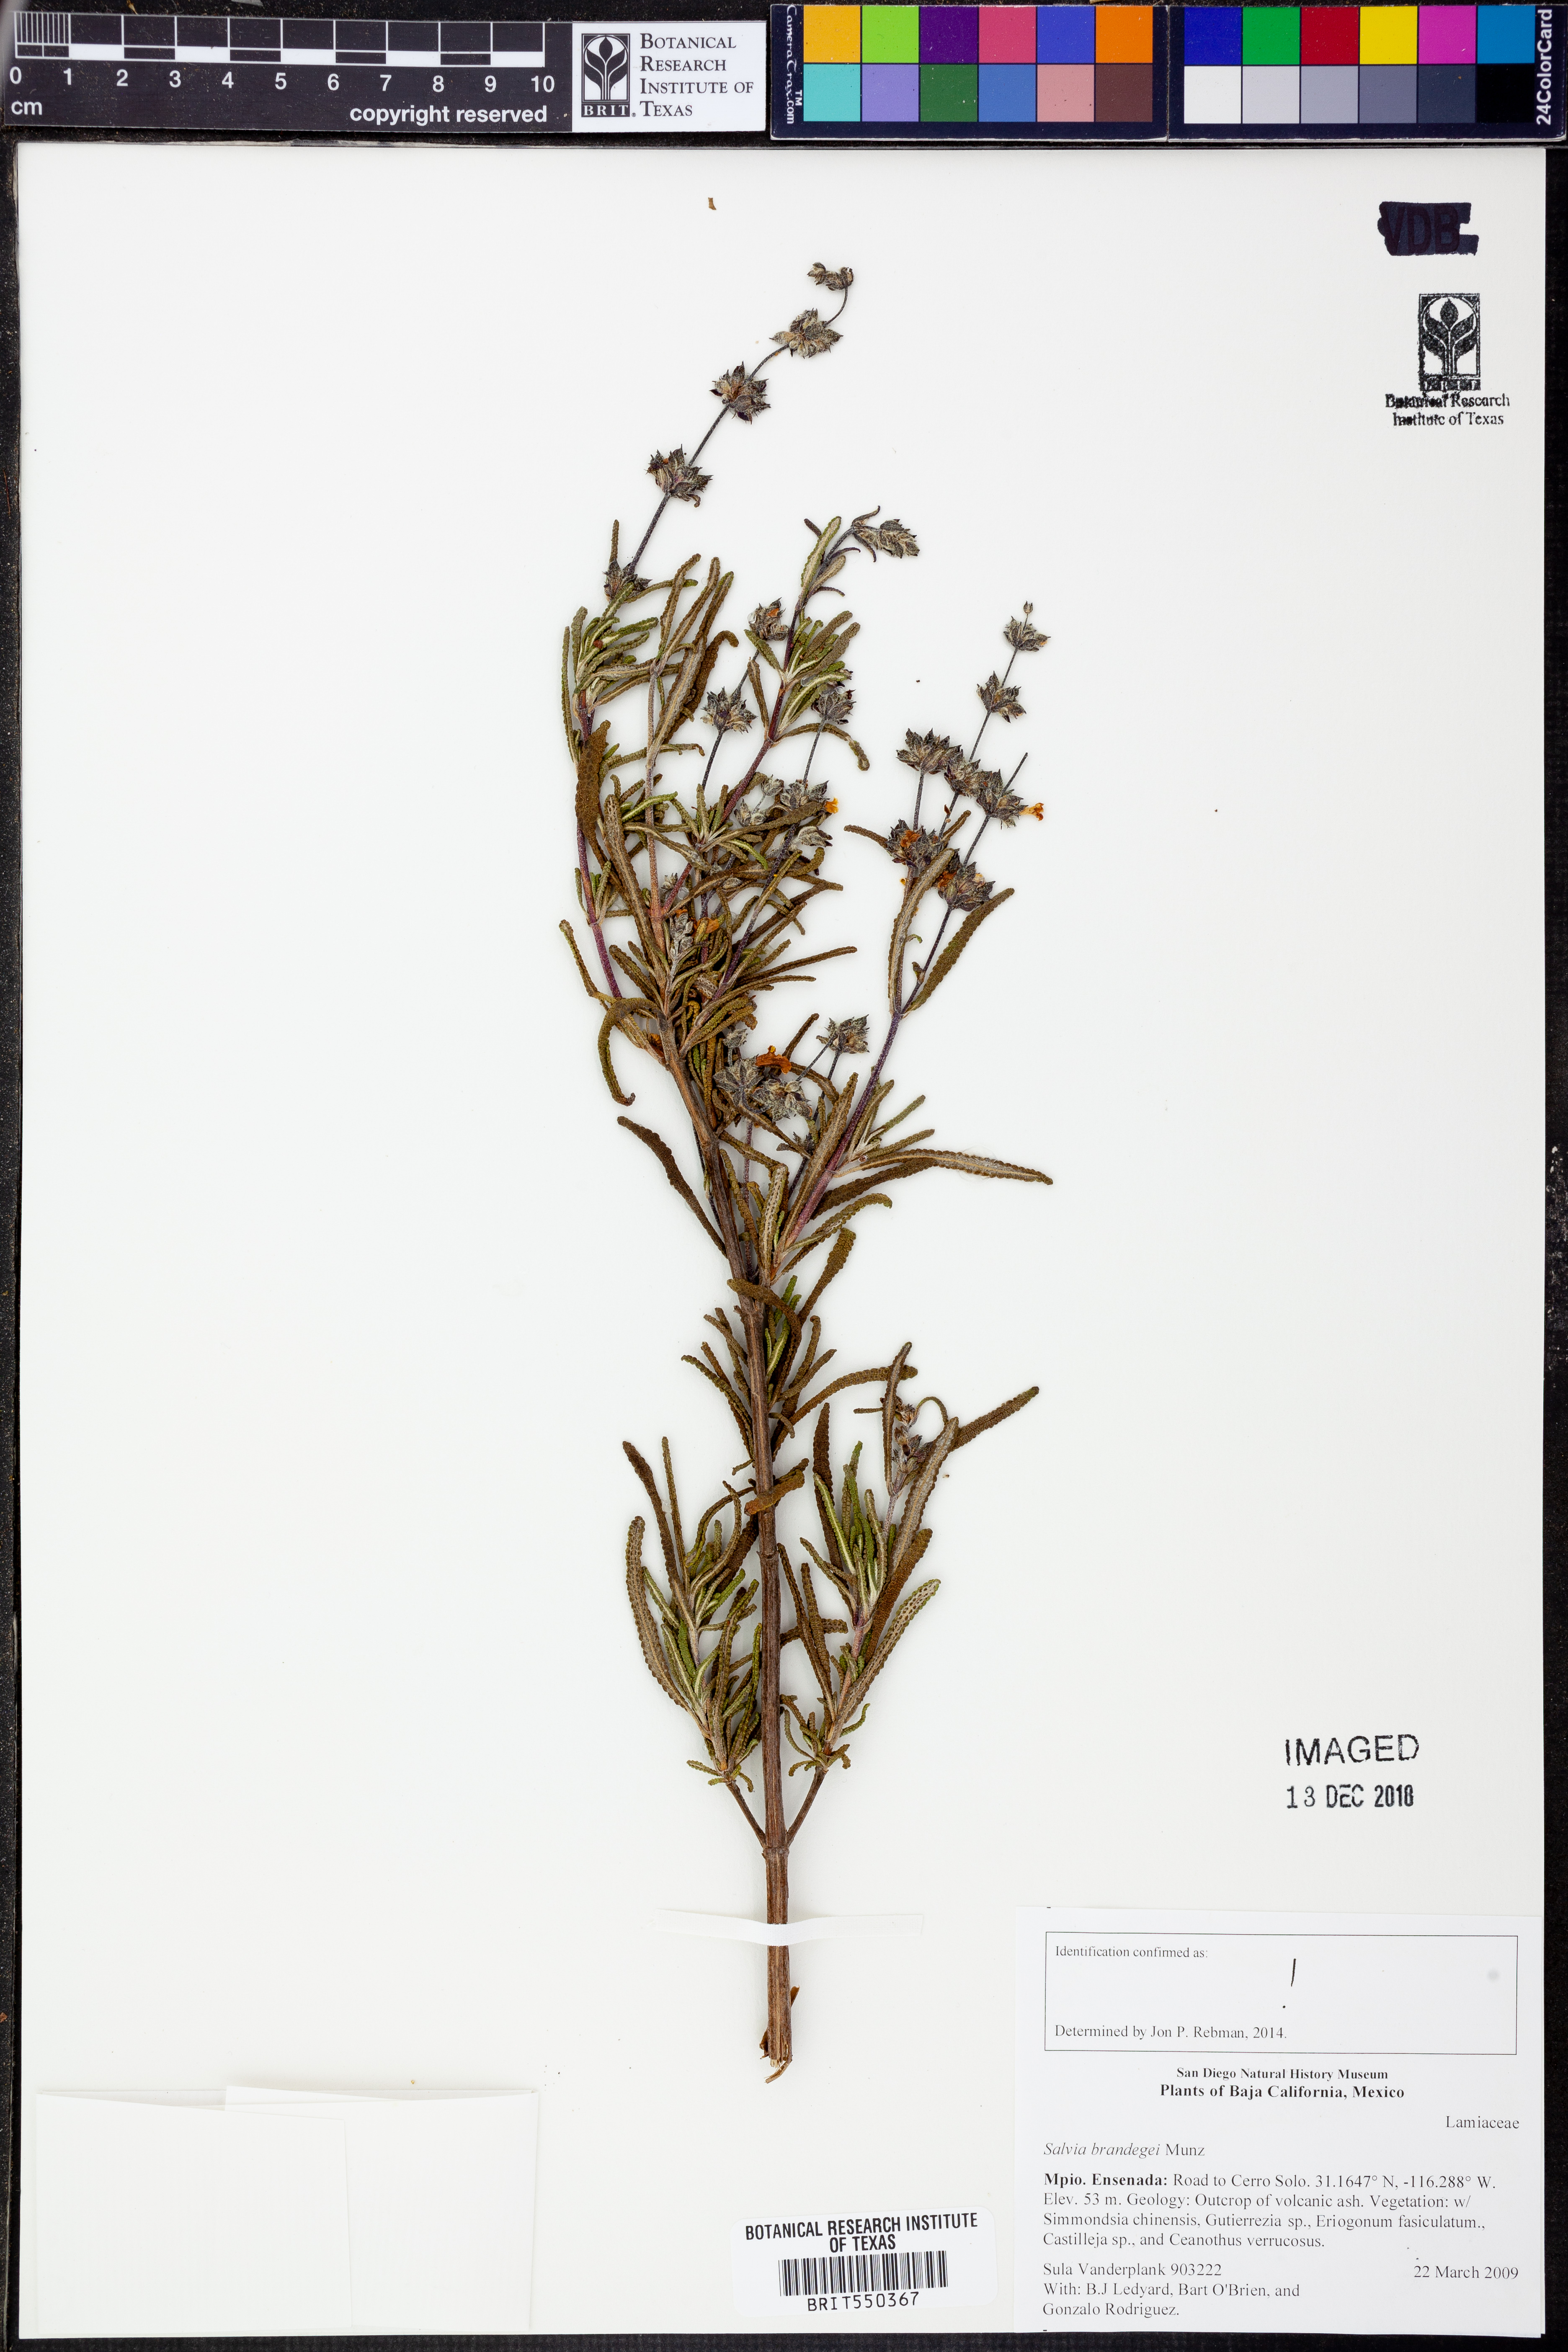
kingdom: Plantae
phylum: Tracheophyta
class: Magnoliopsida
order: Lamiales
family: Lamiaceae
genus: Salvia
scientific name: Salvia brandegeei
